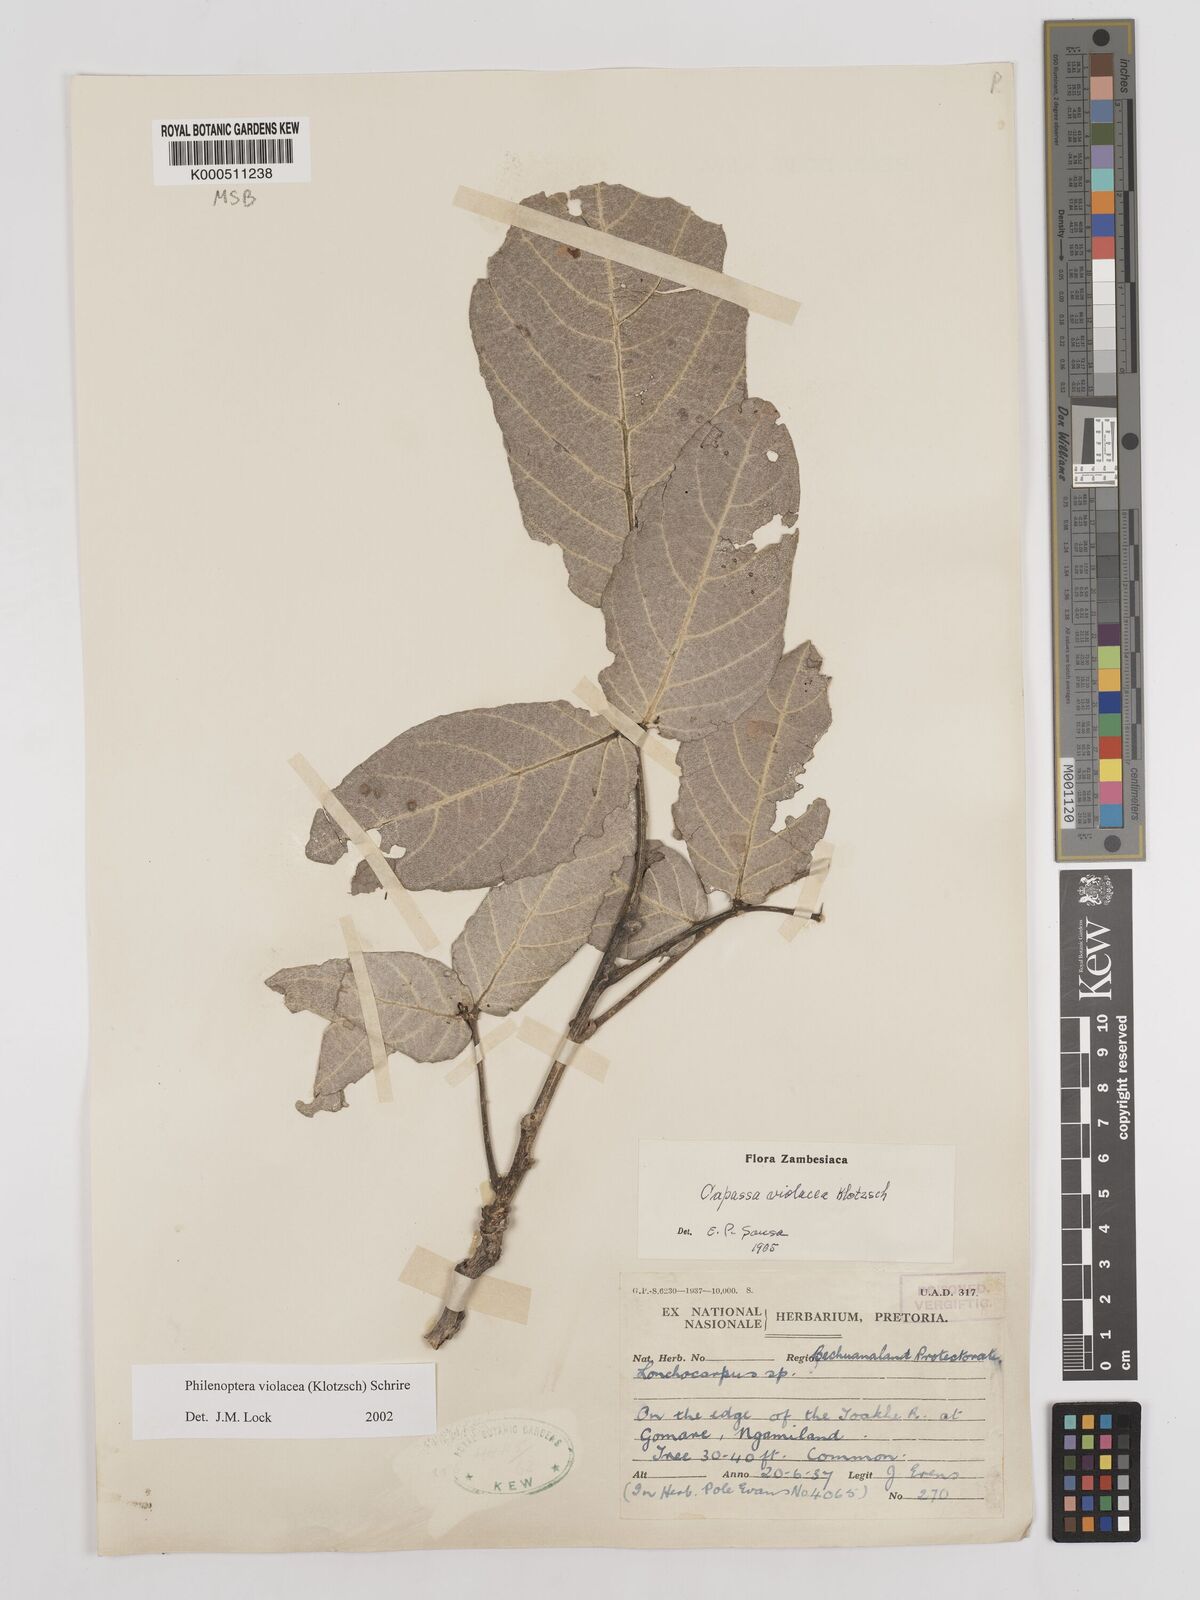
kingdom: Plantae
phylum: Tracheophyta
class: Magnoliopsida
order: Fabales
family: Fabaceae
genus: Philenoptera
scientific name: Philenoptera violacea
